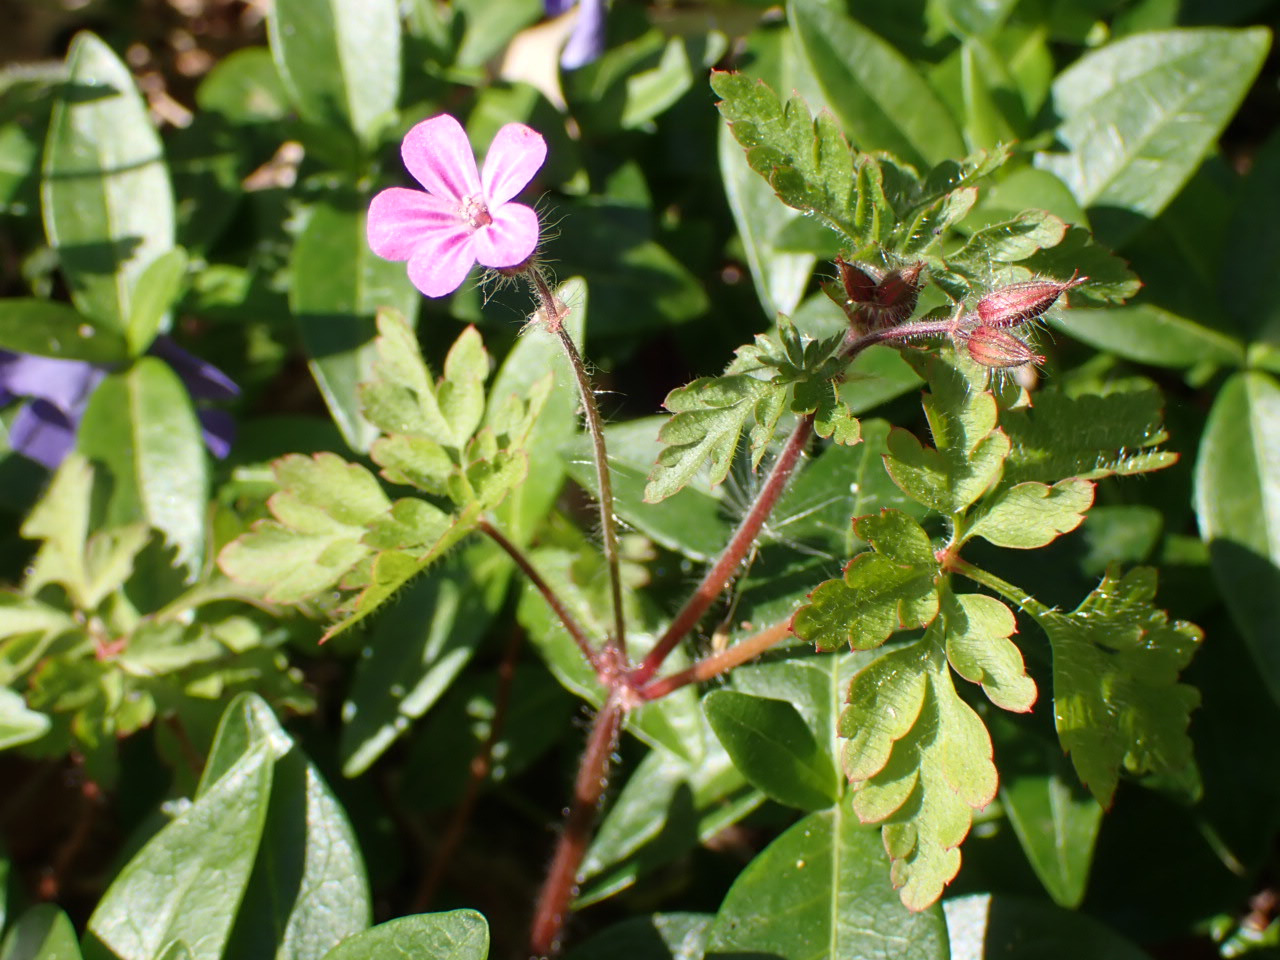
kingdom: Plantae
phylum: Tracheophyta
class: Magnoliopsida
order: Geraniales
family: Geraniaceae
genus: Geranium
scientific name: Geranium robertianum
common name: Stinkende storkenæb
